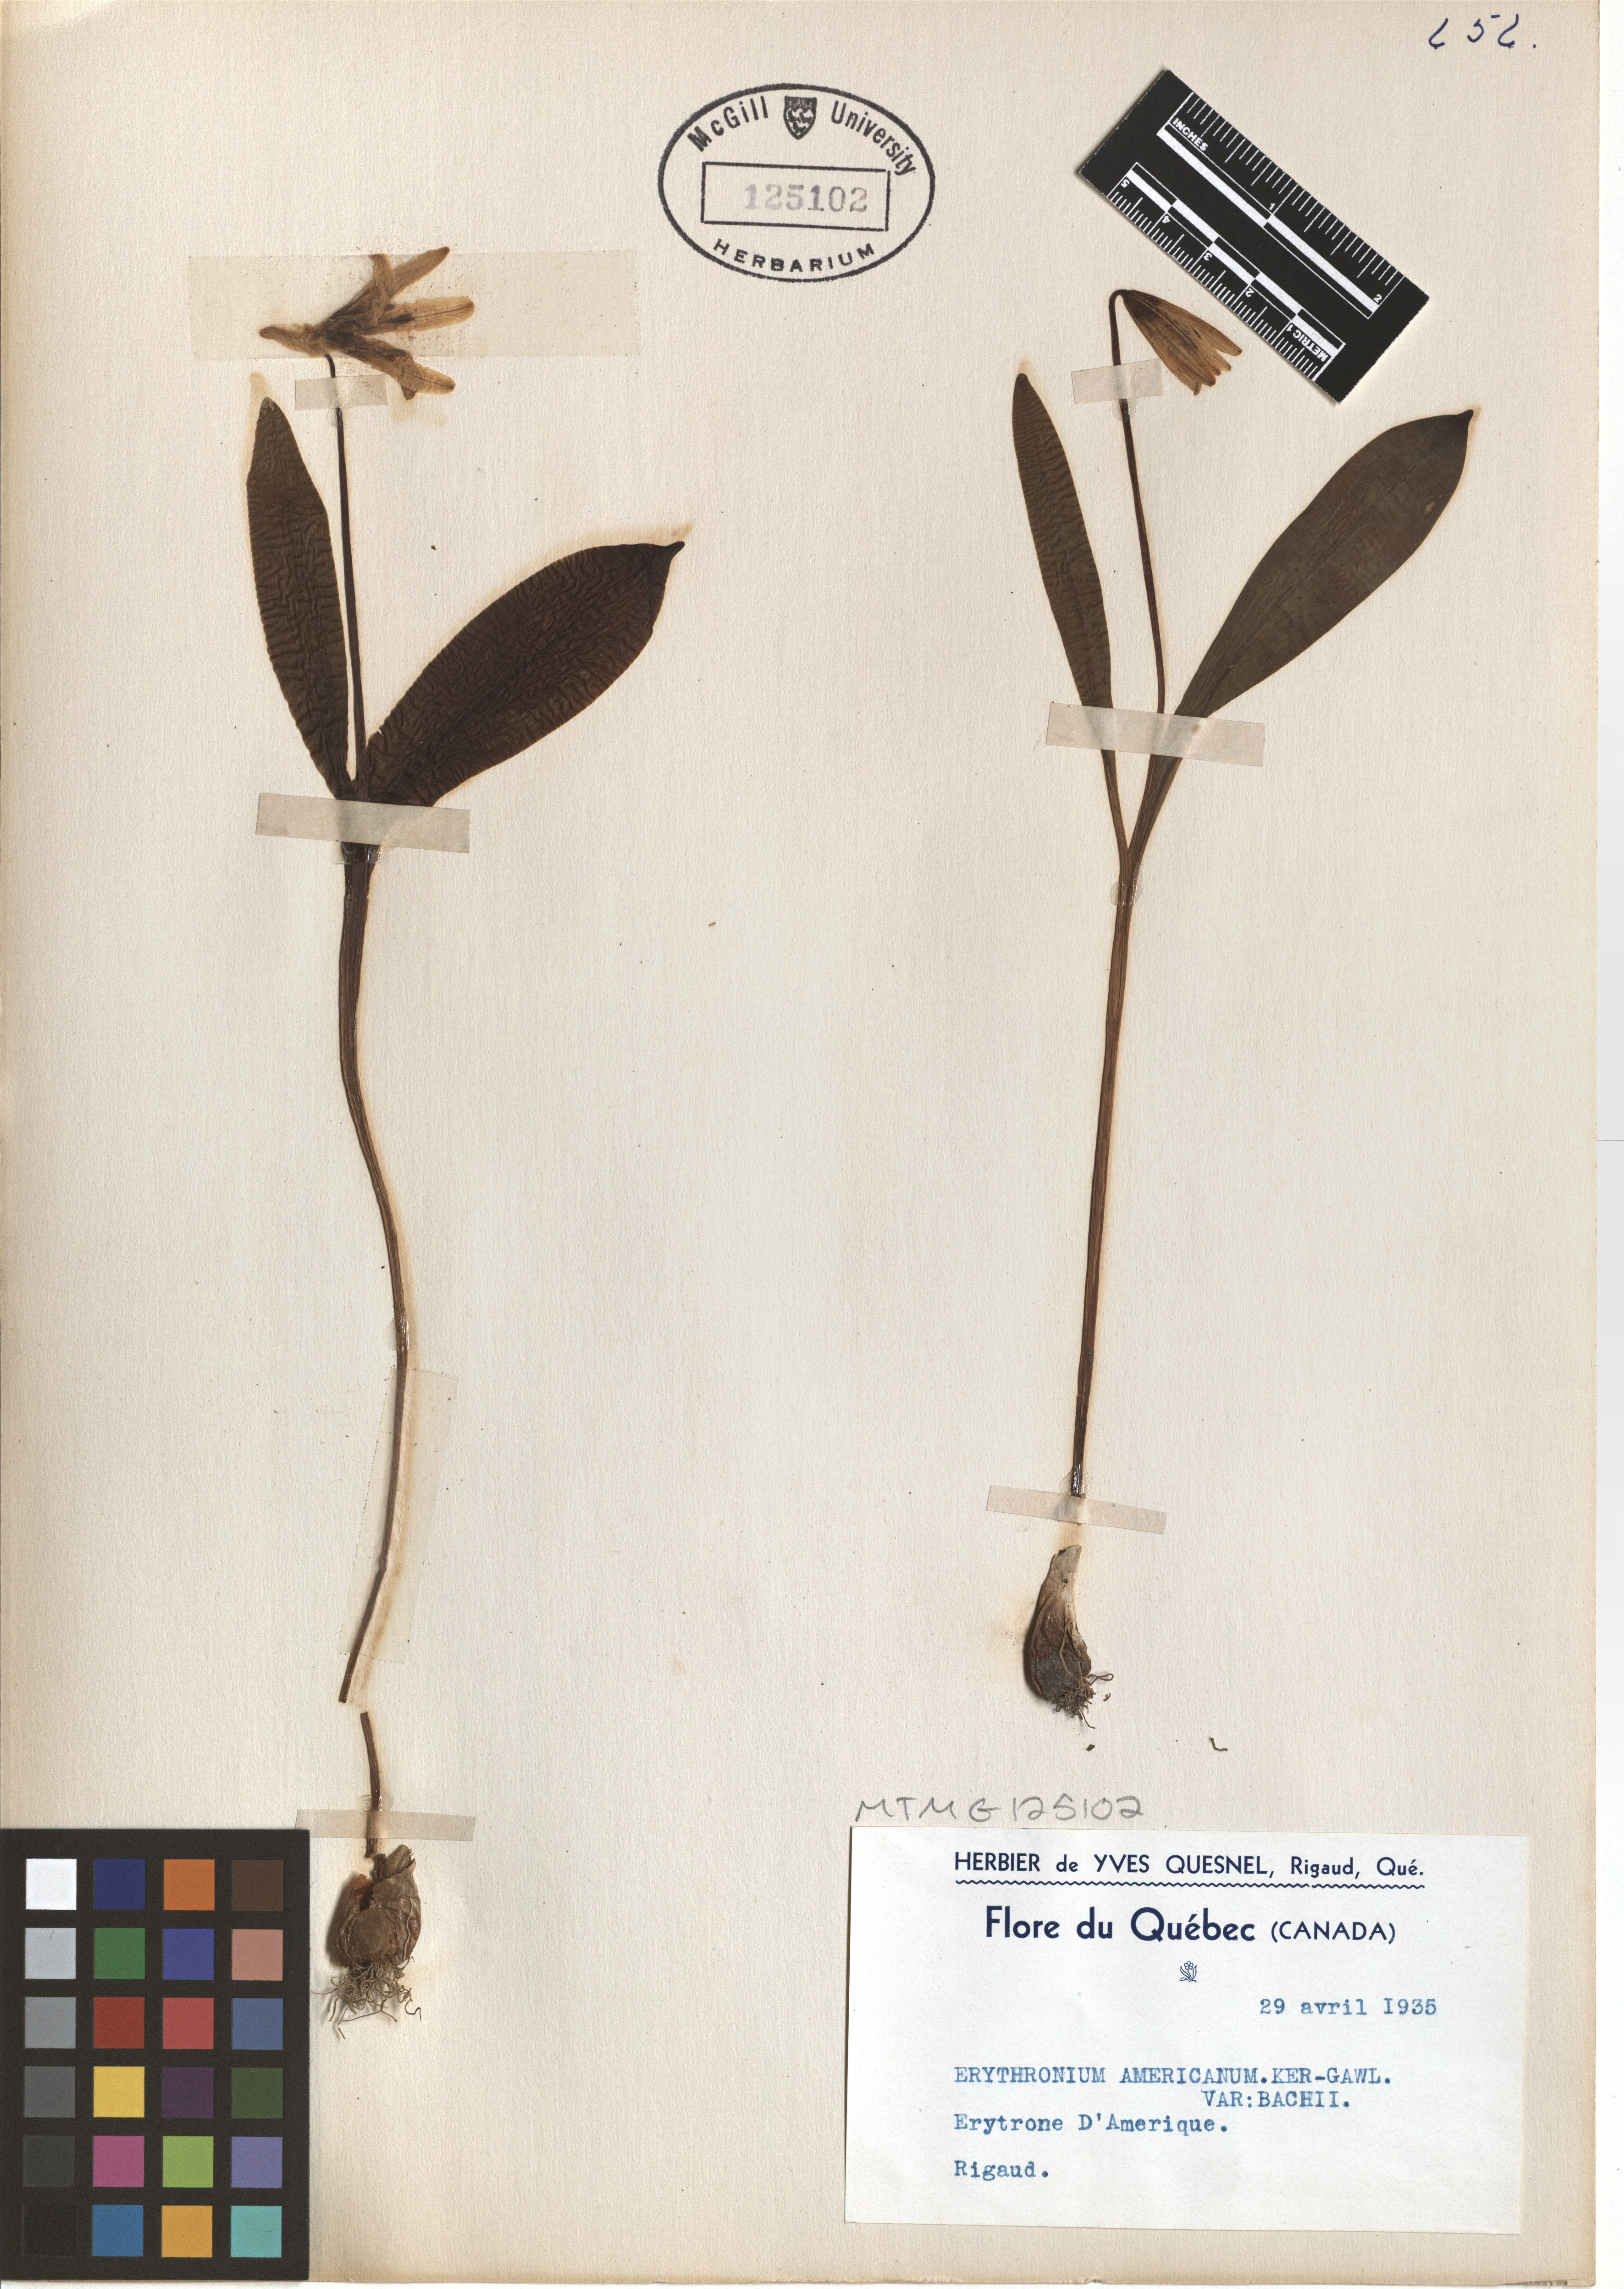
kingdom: Plantae
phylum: Tracheophyta
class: Liliopsida
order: Liliales
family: Liliaceae
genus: Erythronium
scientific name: Erythronium americanum
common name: Yellow adder's-tongue
